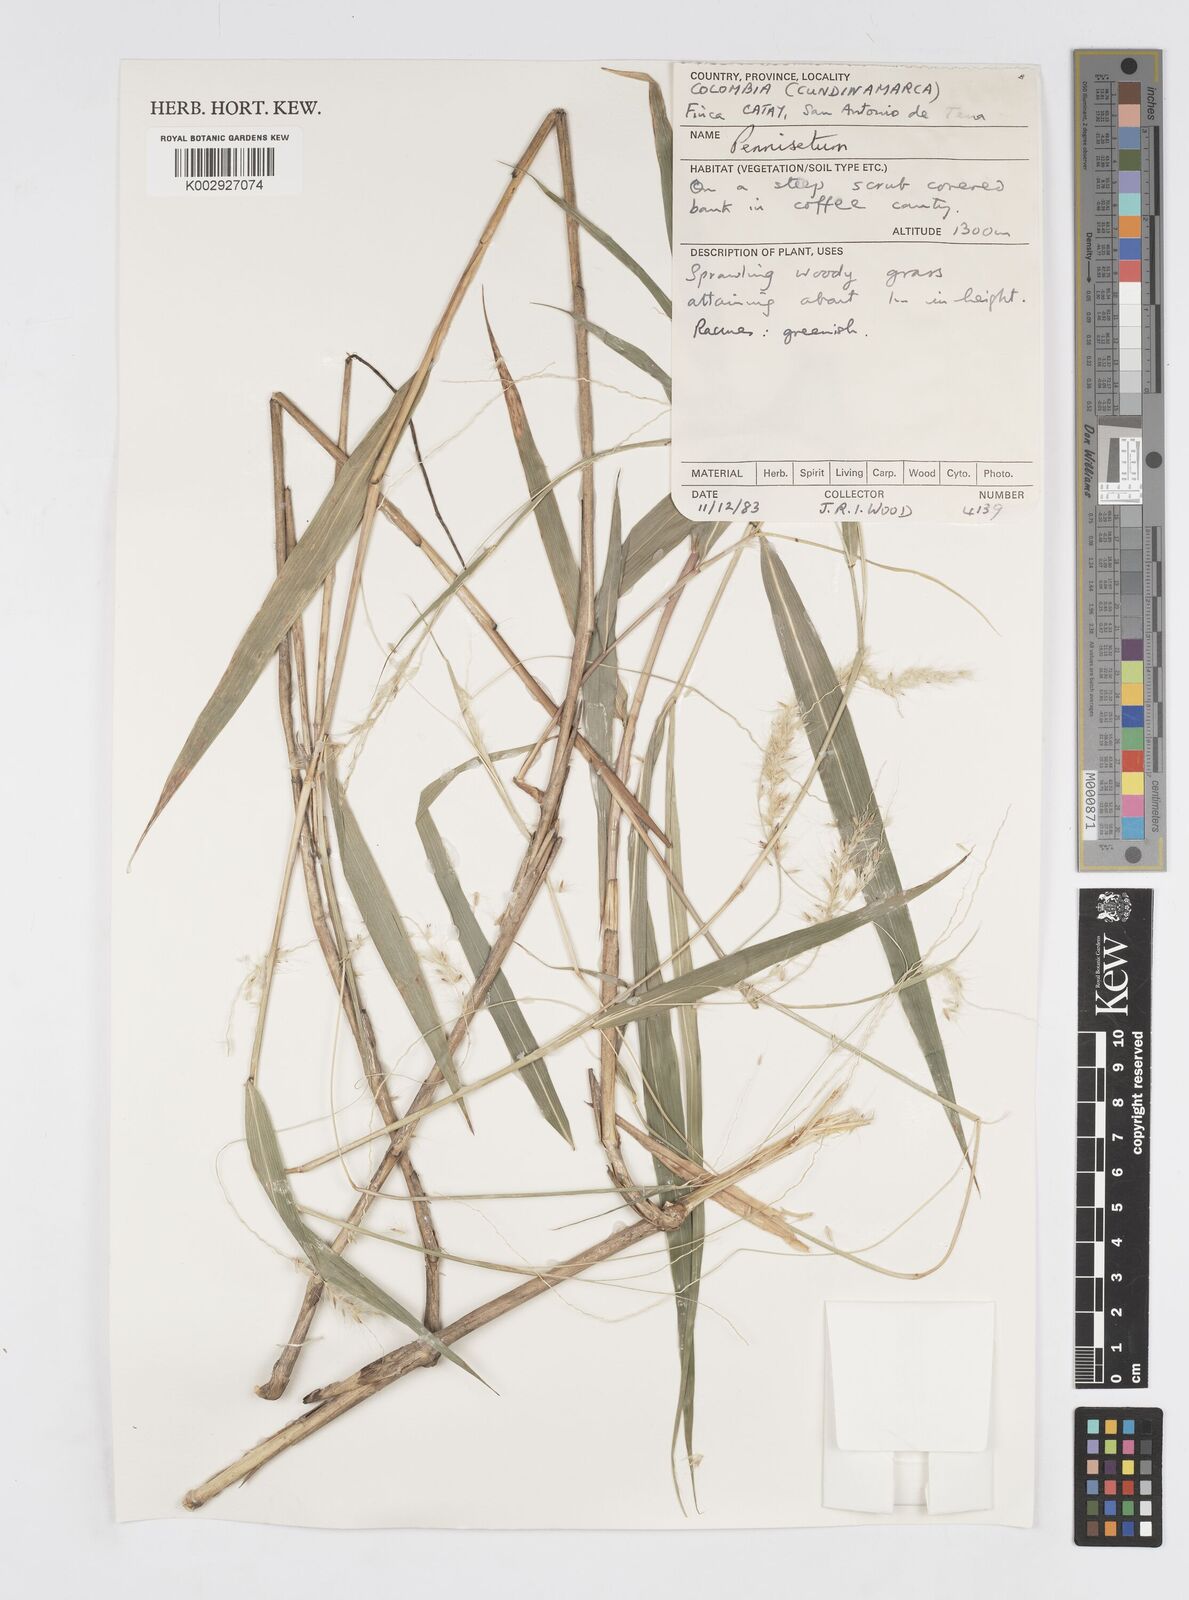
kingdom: Plantae
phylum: Tracheophyta
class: Liliopsida
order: Poales
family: Poaceae
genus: Cenchrus
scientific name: Cenchrus tristachyus
